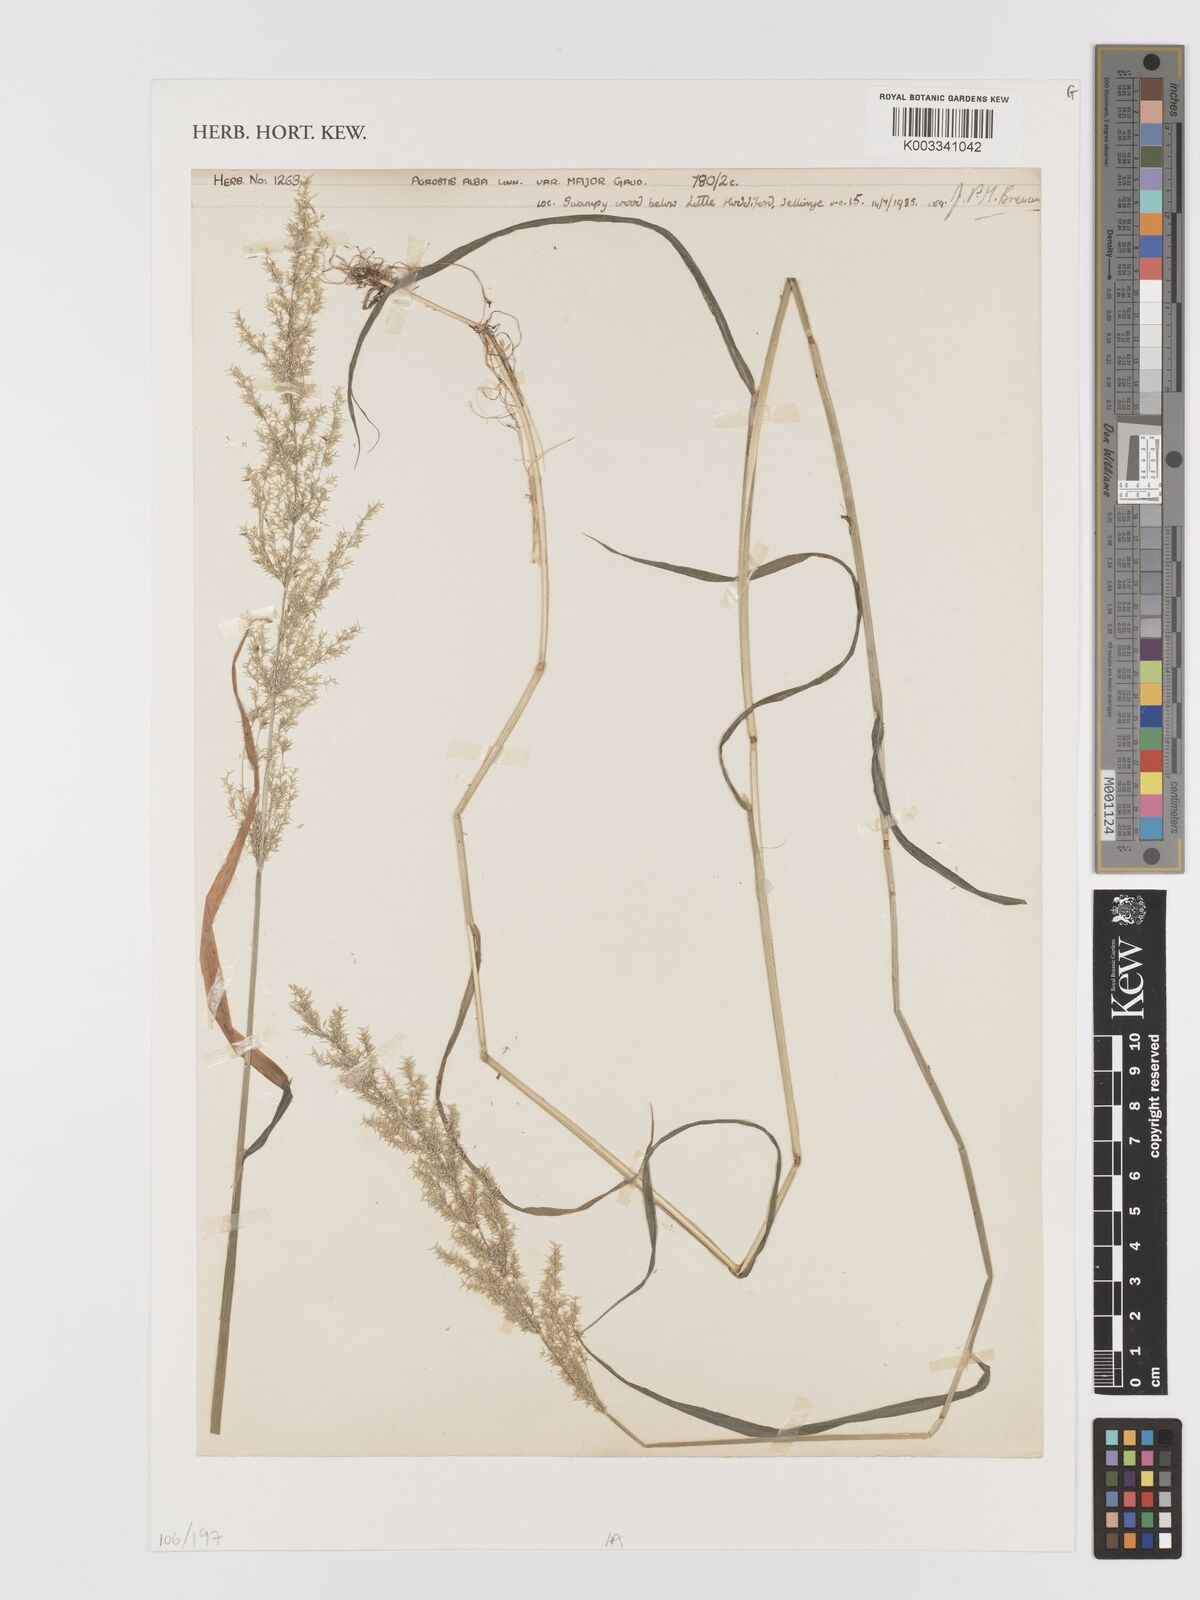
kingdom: Plantae
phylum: Tracheophyta
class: Liliopsida
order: Poales
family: Poaceae
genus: Agrostis
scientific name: Agrostis gigantea
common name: Black bent
